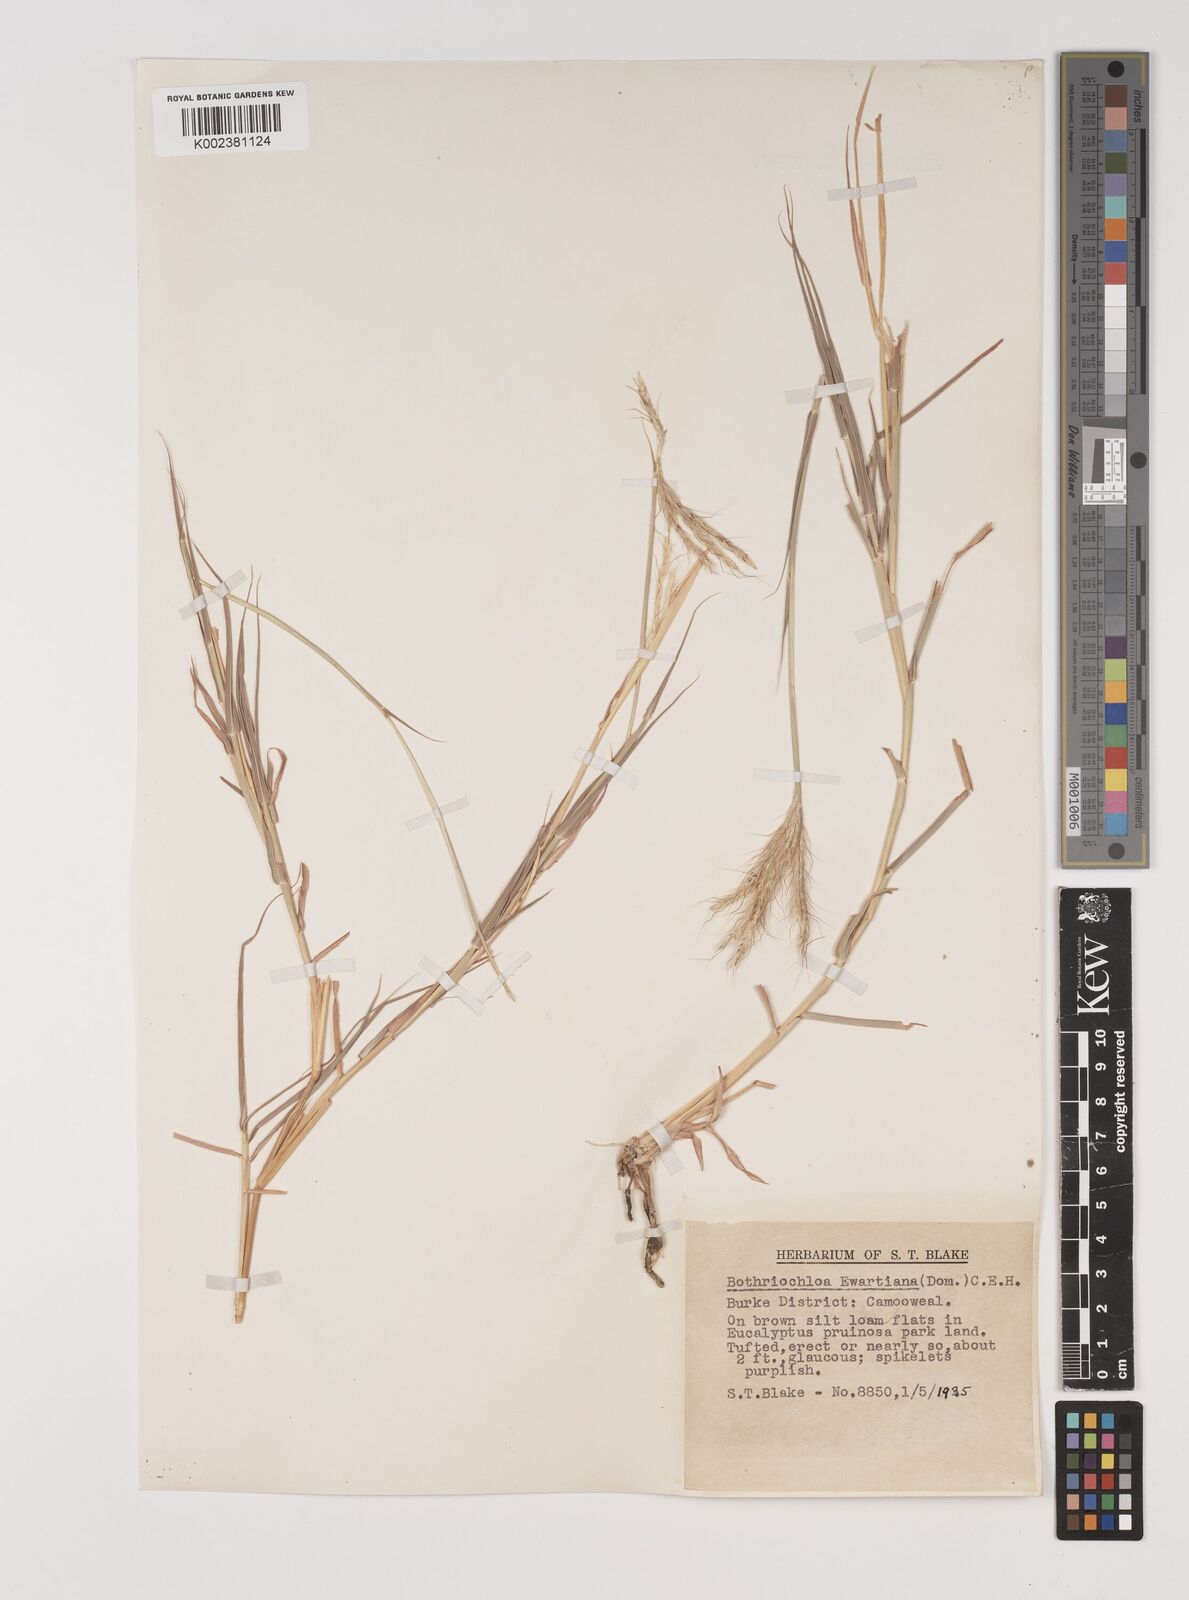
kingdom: Plantae
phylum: Tracheophyta
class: Liliopsida
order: Poales
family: Poaceae
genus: Bothriochloa
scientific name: Bothriochloa ewartiana
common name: Desert-bluegrass
